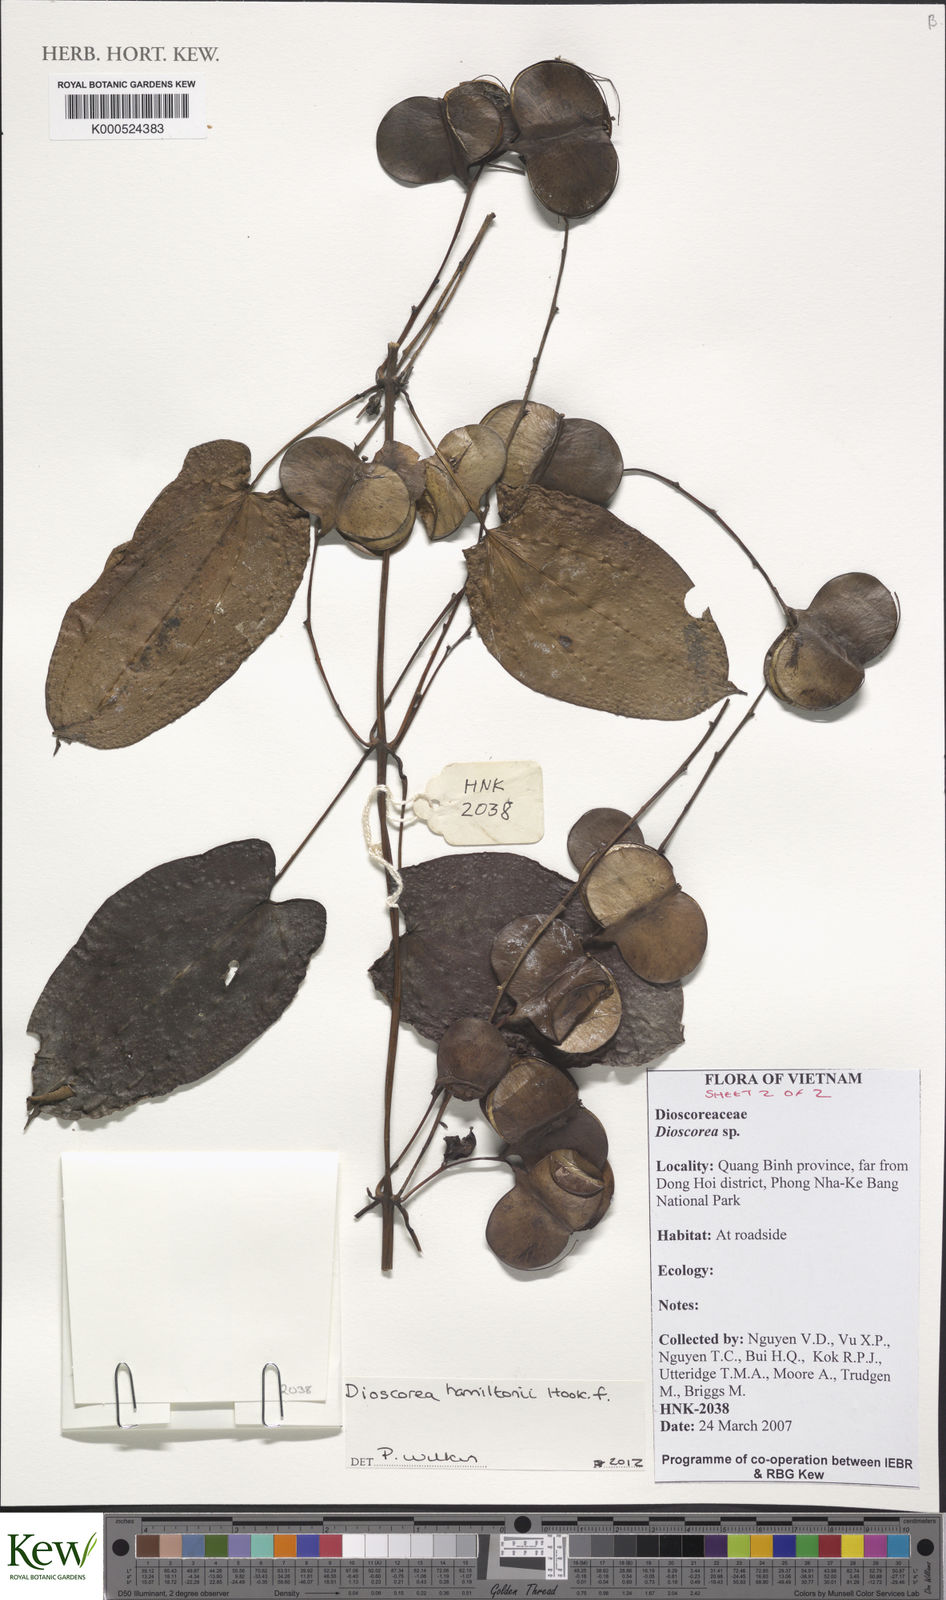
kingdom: Plantae
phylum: Tracheophyta
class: Liliopsida
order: Dioscoreales
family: Dioscoreaceae
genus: Dioscorea
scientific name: Dioscorea hamiltonii
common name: Mountain yam
